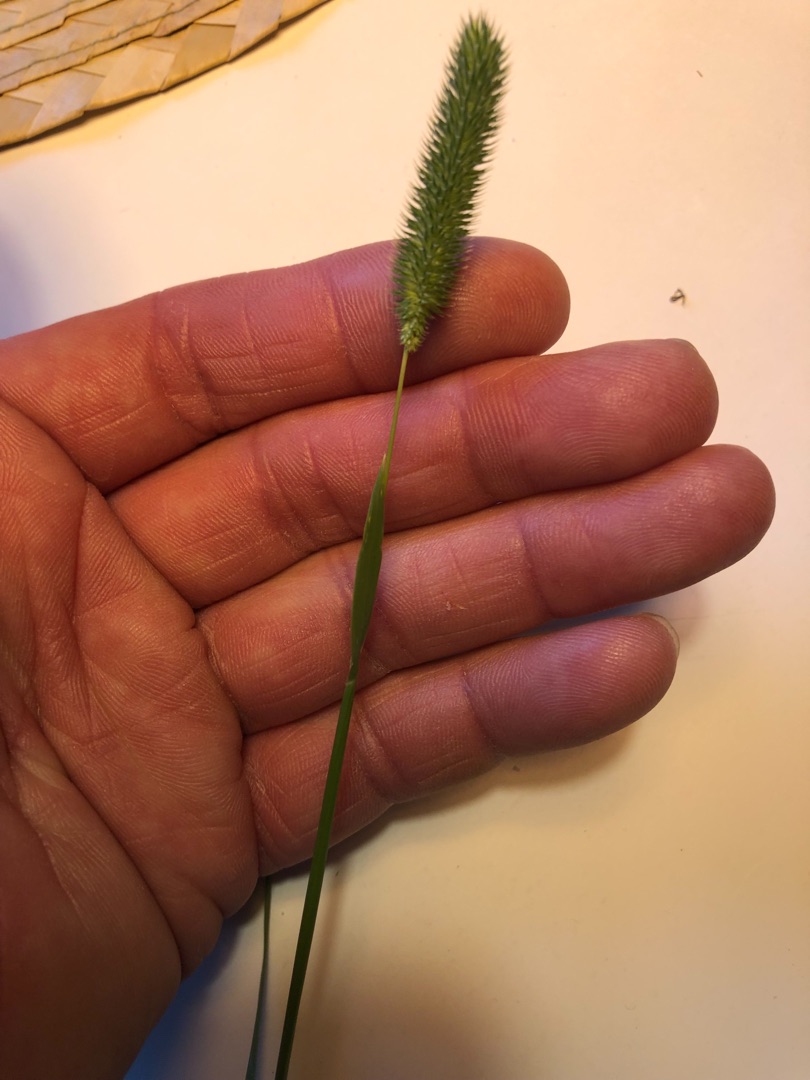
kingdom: Plantae
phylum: Tracheophyta
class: Liliopsida
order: Poales
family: Poaceae
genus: Phleum
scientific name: Phleum pratense
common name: Eng-rottehale
